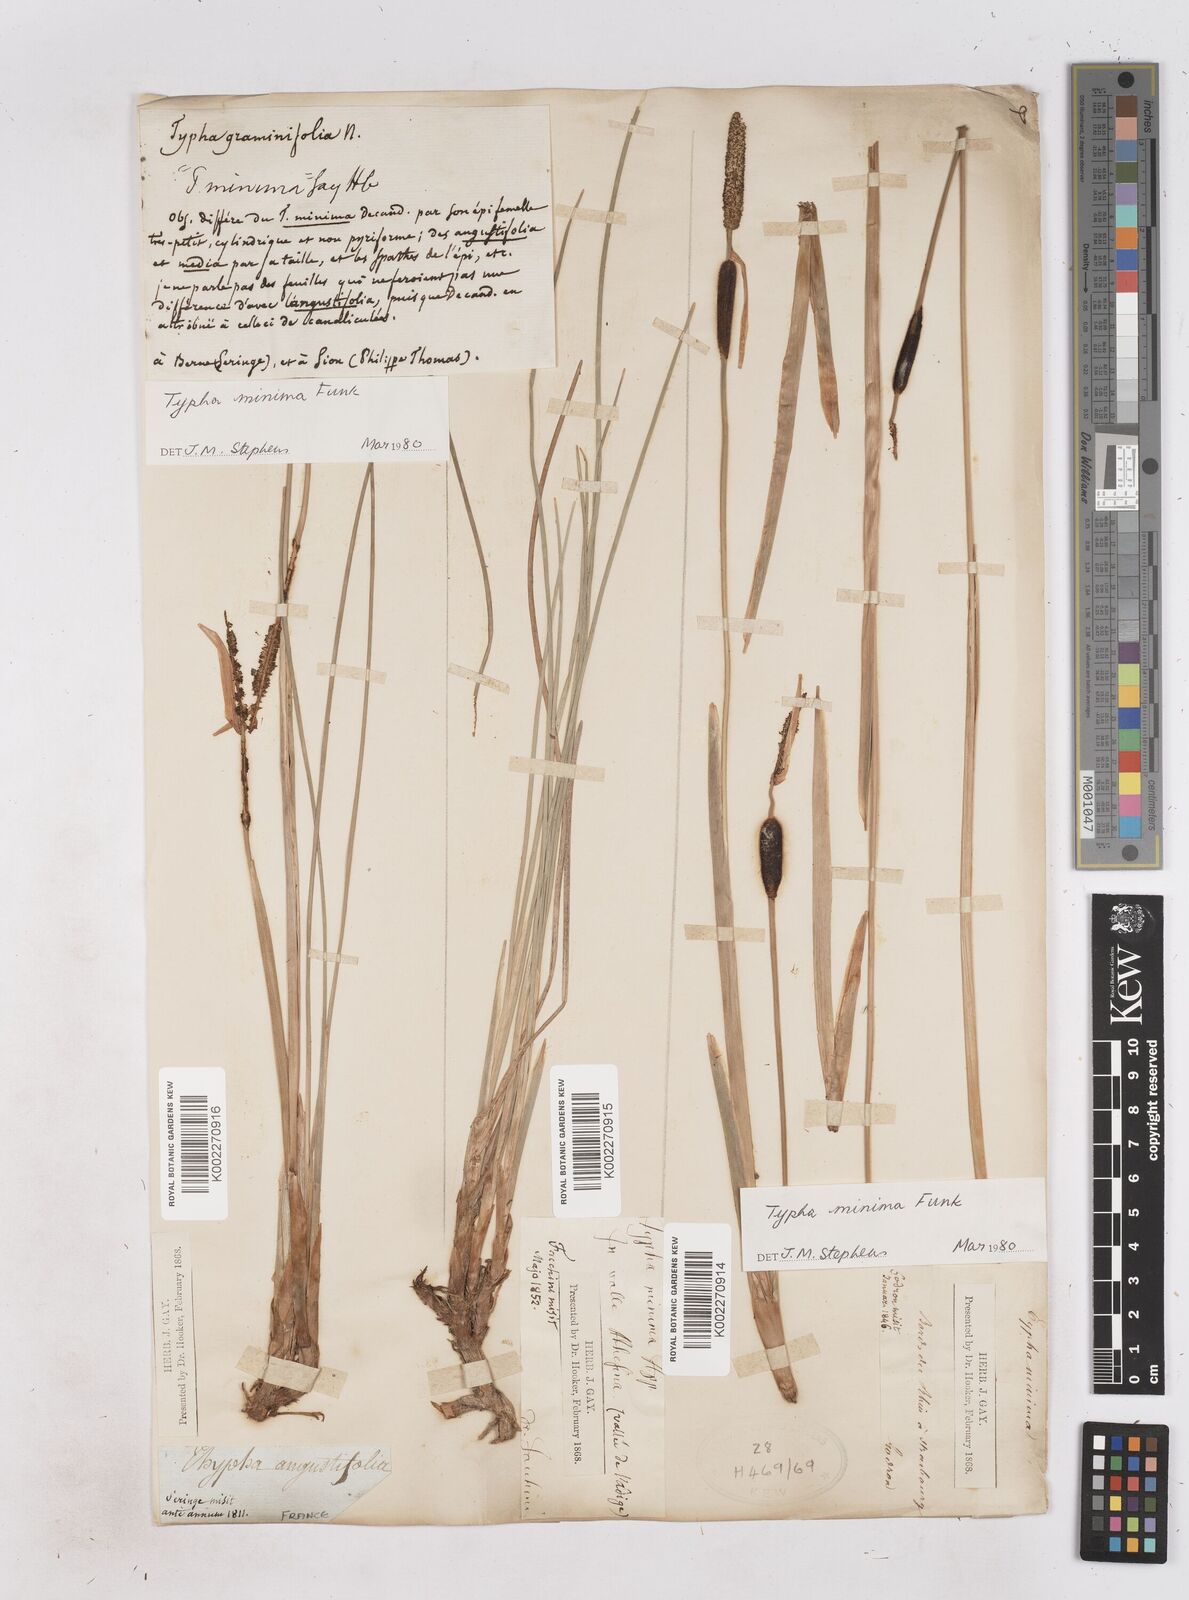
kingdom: Plantae
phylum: Tracheophyta
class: Liliopsida
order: Poales
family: Typhaceae
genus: Typha
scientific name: Typha
